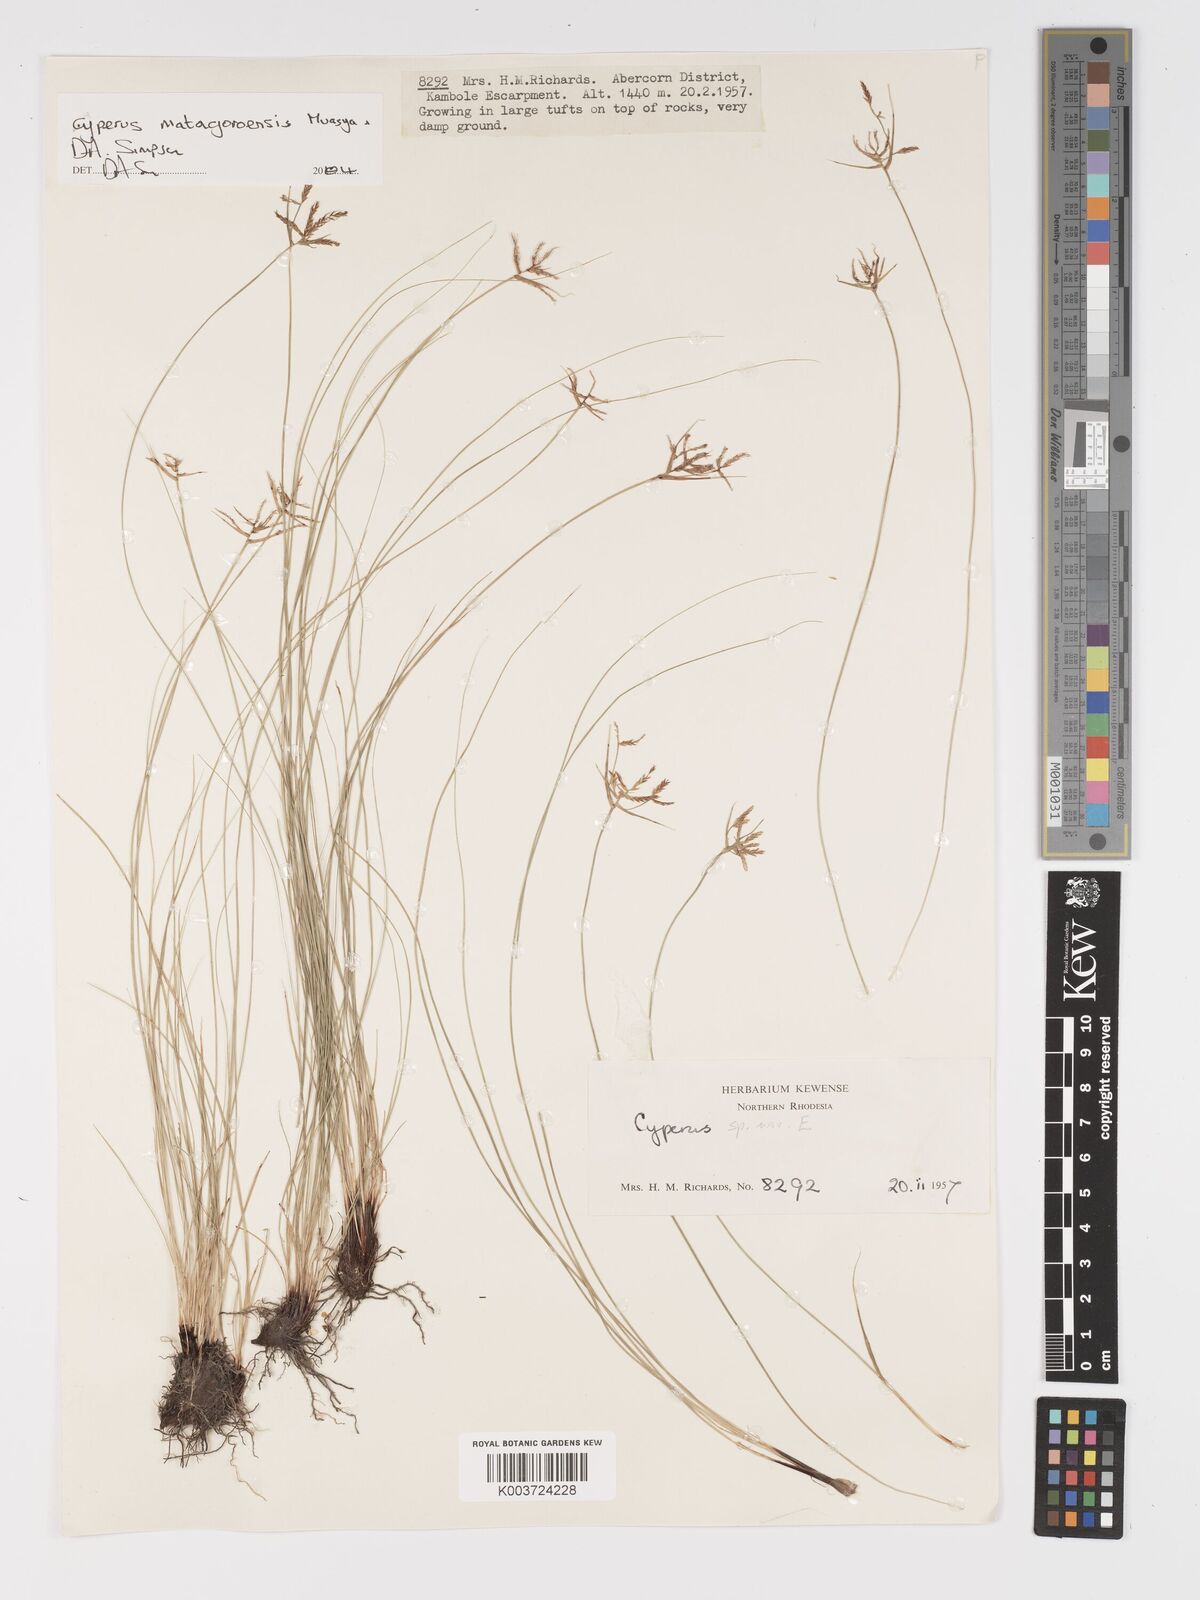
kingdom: Plantae
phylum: Tracheophyta
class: Liliopsida
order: Poales
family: Cyperaceae
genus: Cyperus
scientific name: Cyperus matagoroensis
